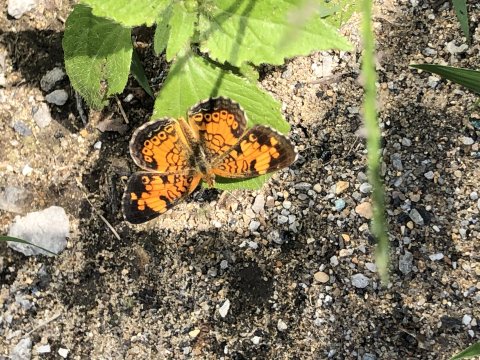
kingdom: Animalia
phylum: Arthropoda
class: Insecta
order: Lepidoptera
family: Nymphalidae
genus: Phyciodes
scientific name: Phyciodes tharos
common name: Pearl Crescent
